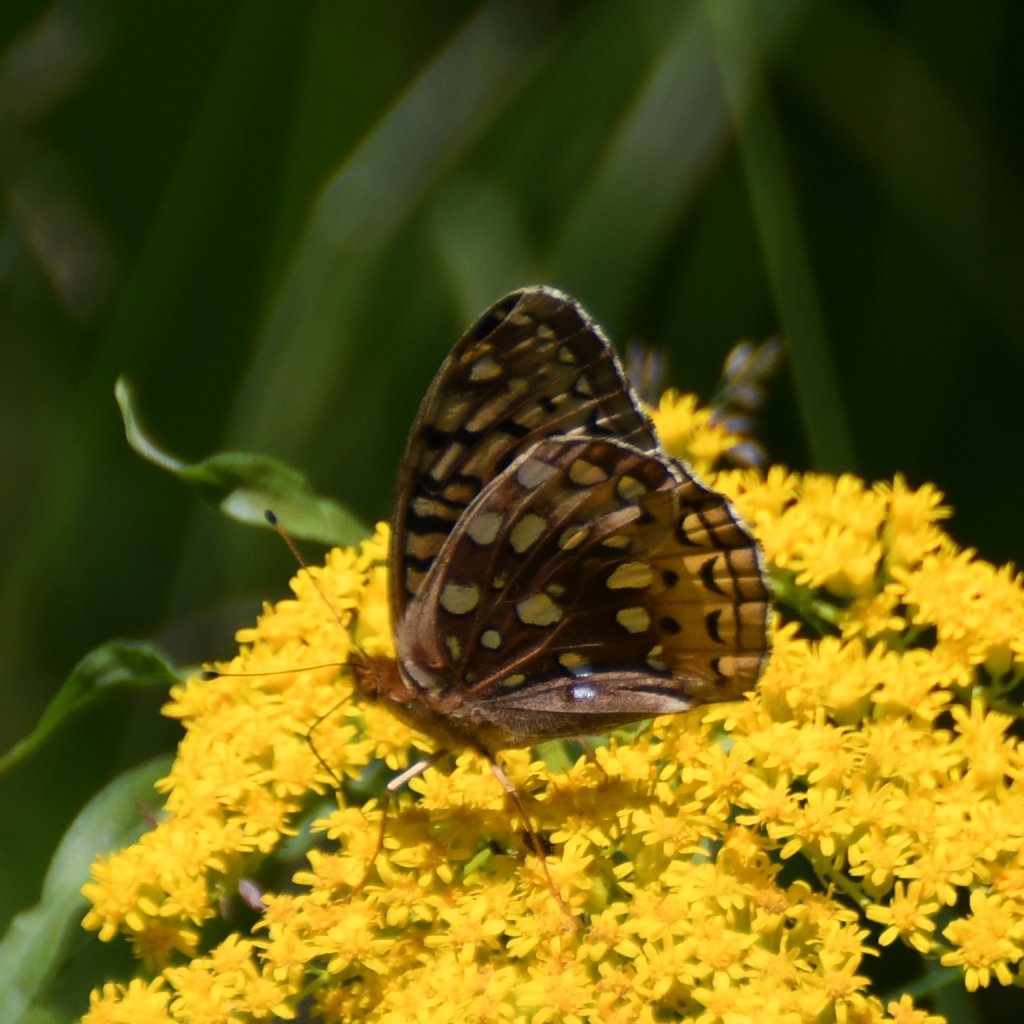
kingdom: Animalia
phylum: Arthropoda
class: Insecta
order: Lepidoptera
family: Nymphalidae
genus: Speyeria
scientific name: Speyeria cybele
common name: Great Spangled Fritillary
